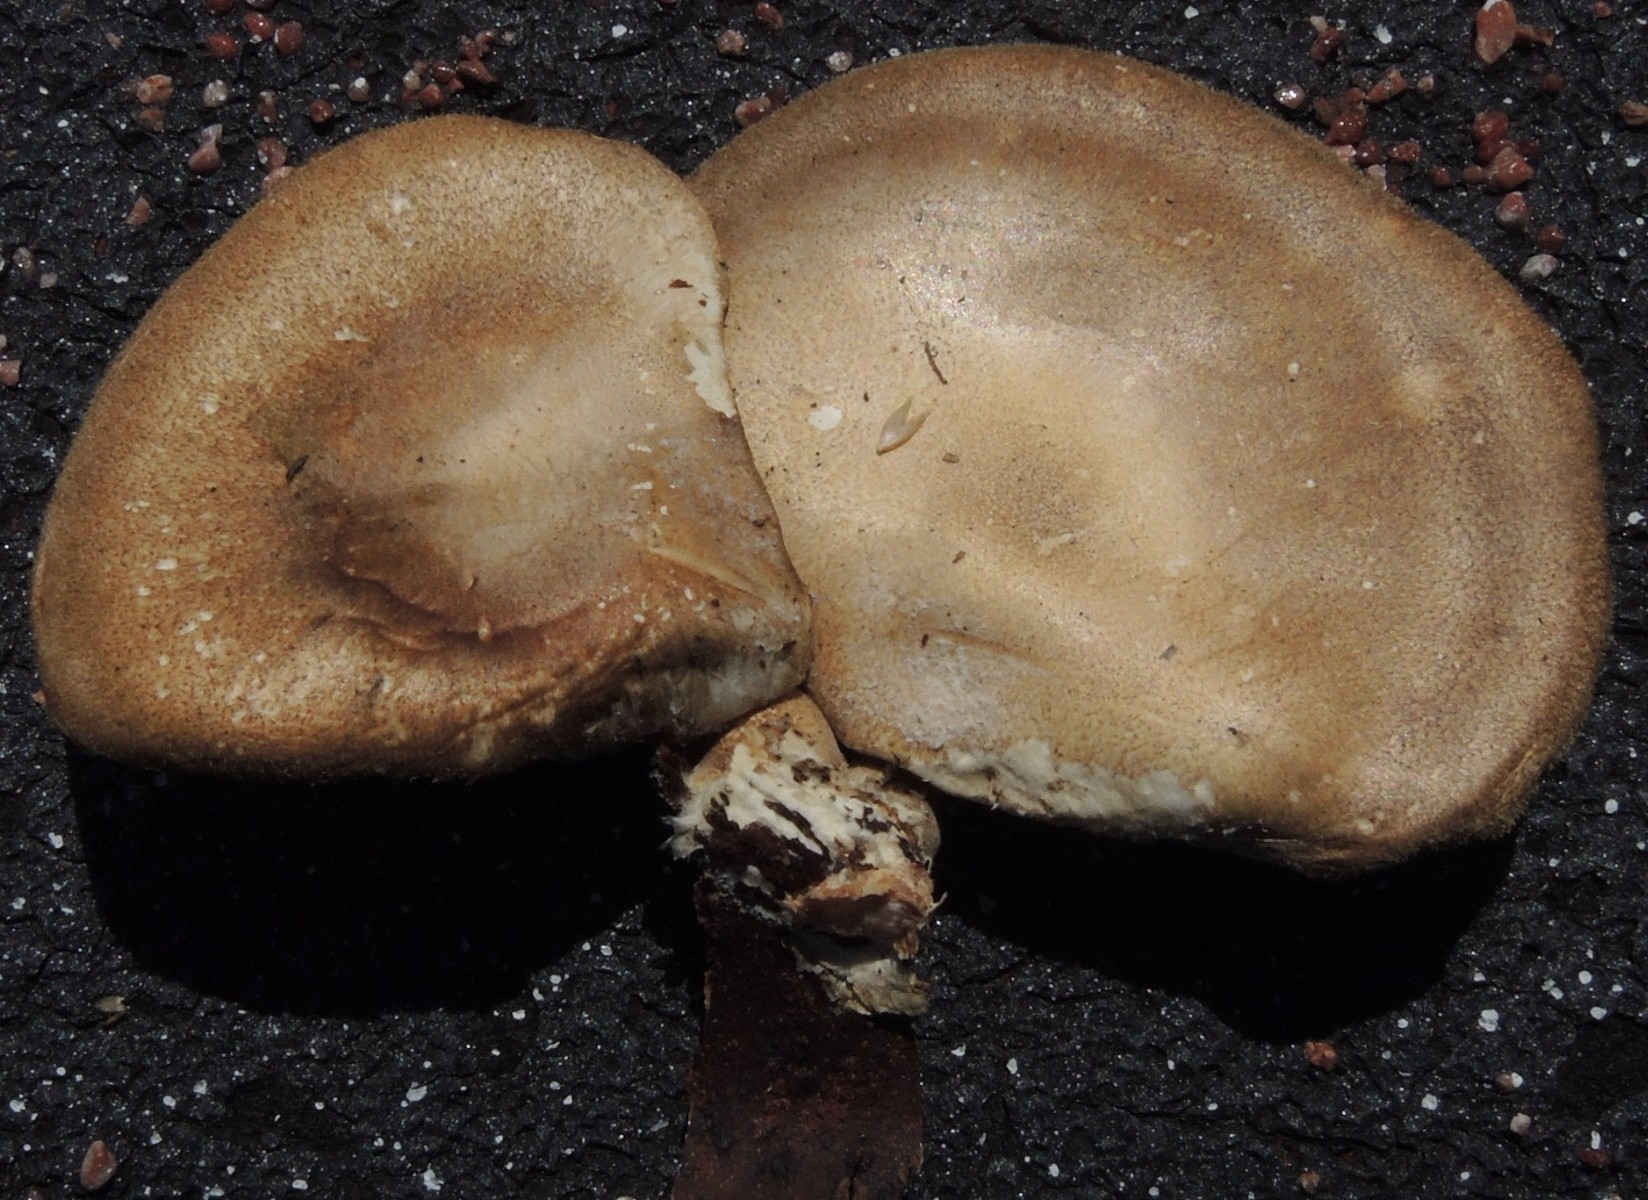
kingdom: Fungi
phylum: Basidiomycota
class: Agaricomycetes
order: Polyporales
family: Polyporaceae
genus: Lentinus
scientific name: Lentinus substrictus
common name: forårs-stilkporesvamp
